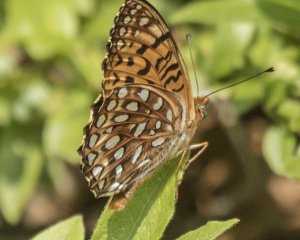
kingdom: Animalia
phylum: Arthropoda
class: Insecta
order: Lepidoptera
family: Nymphalidae
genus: Speyeria
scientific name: Speyeria atlantis
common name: Atlantis Fritillary
